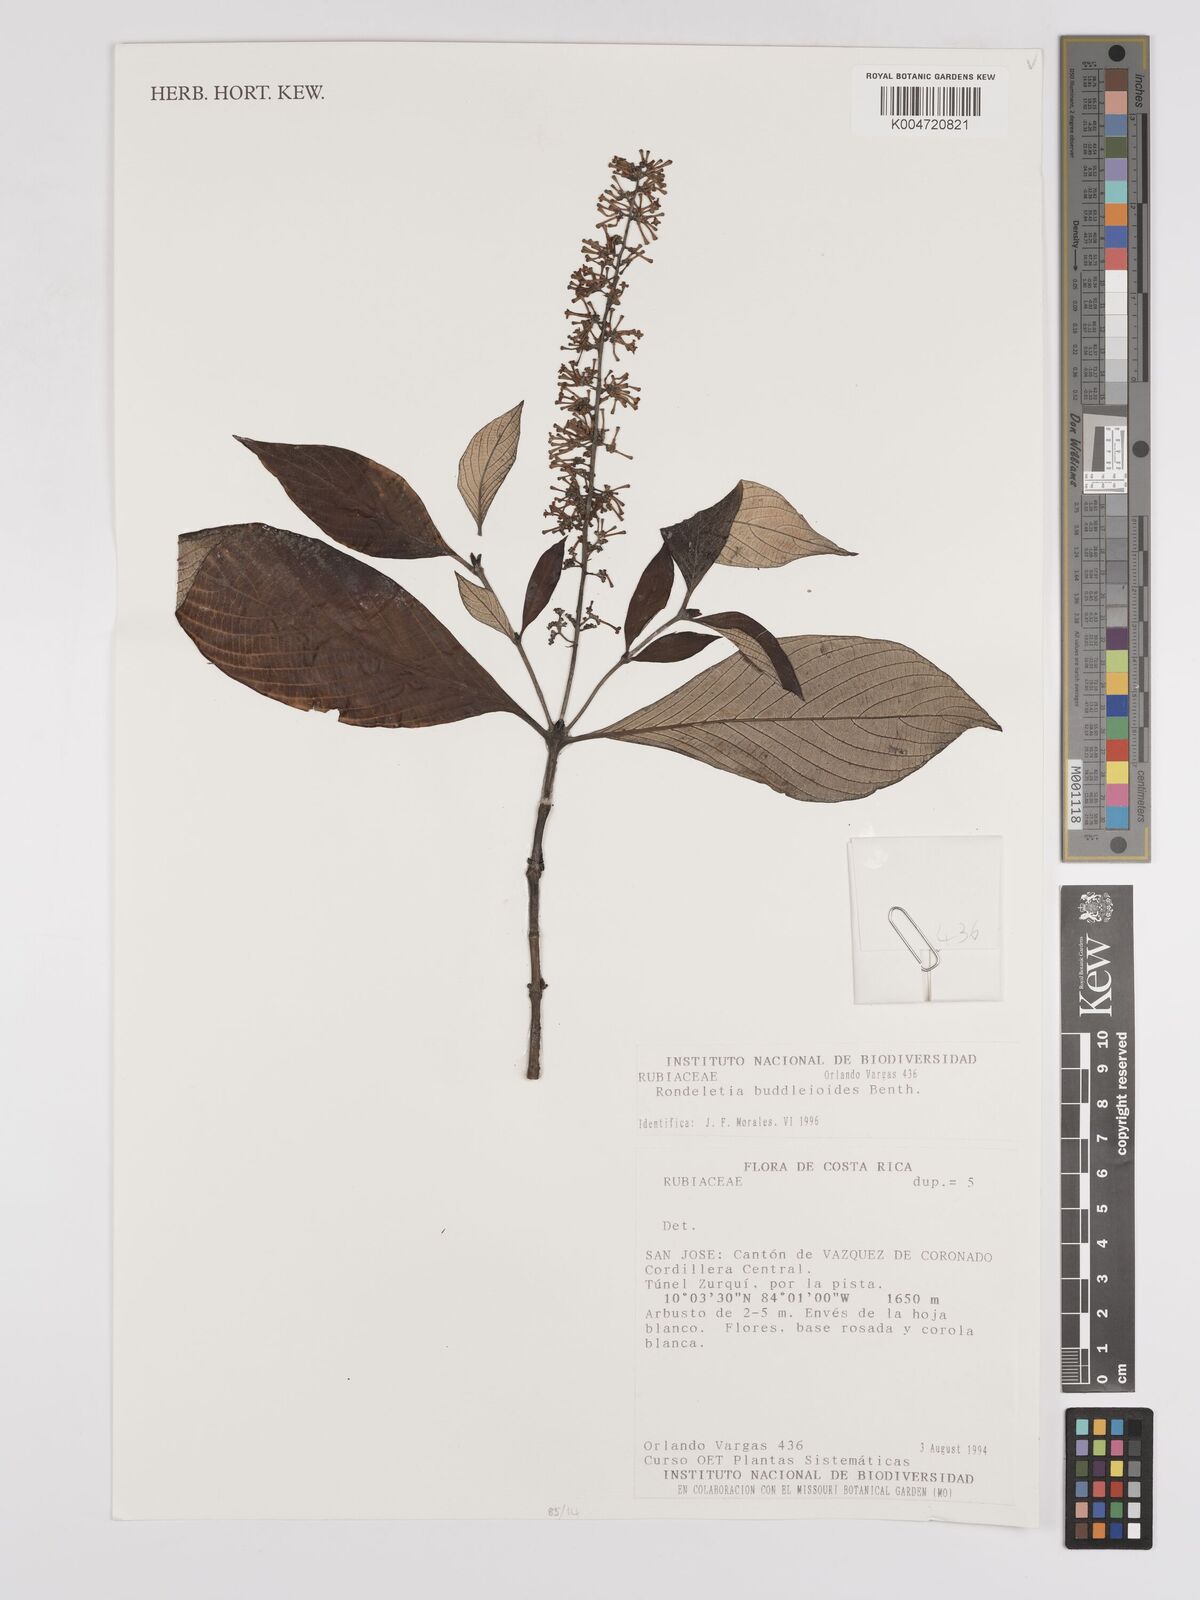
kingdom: Plantae
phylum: Tracheophyta
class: Magnoliopsida
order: Gentianales
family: Rubiaceae
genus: Arachnothryx
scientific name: Arachnothryx buddleioides
